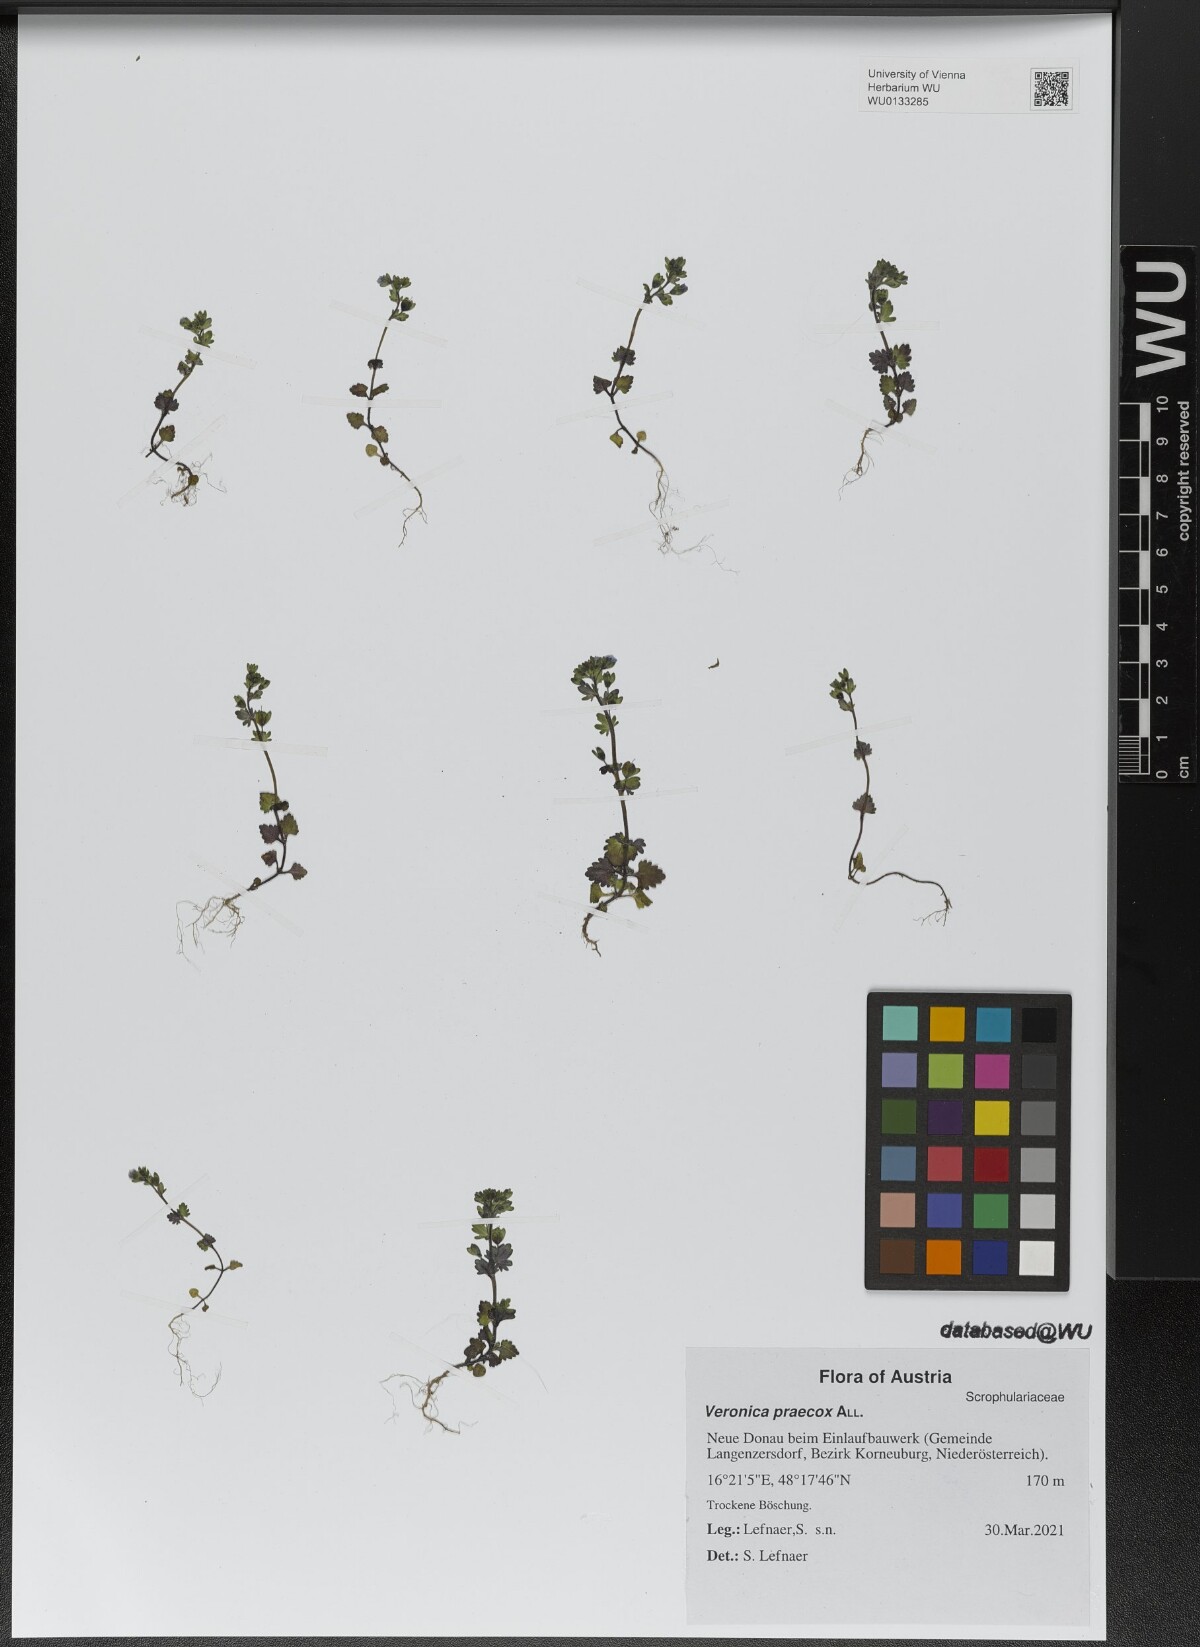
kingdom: Plantae
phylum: Tracheophyta
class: Magnoliopsida
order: Lamiales
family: Plantaginaceae
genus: Veronica
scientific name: Veronica praecox
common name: Breckland speedwell
